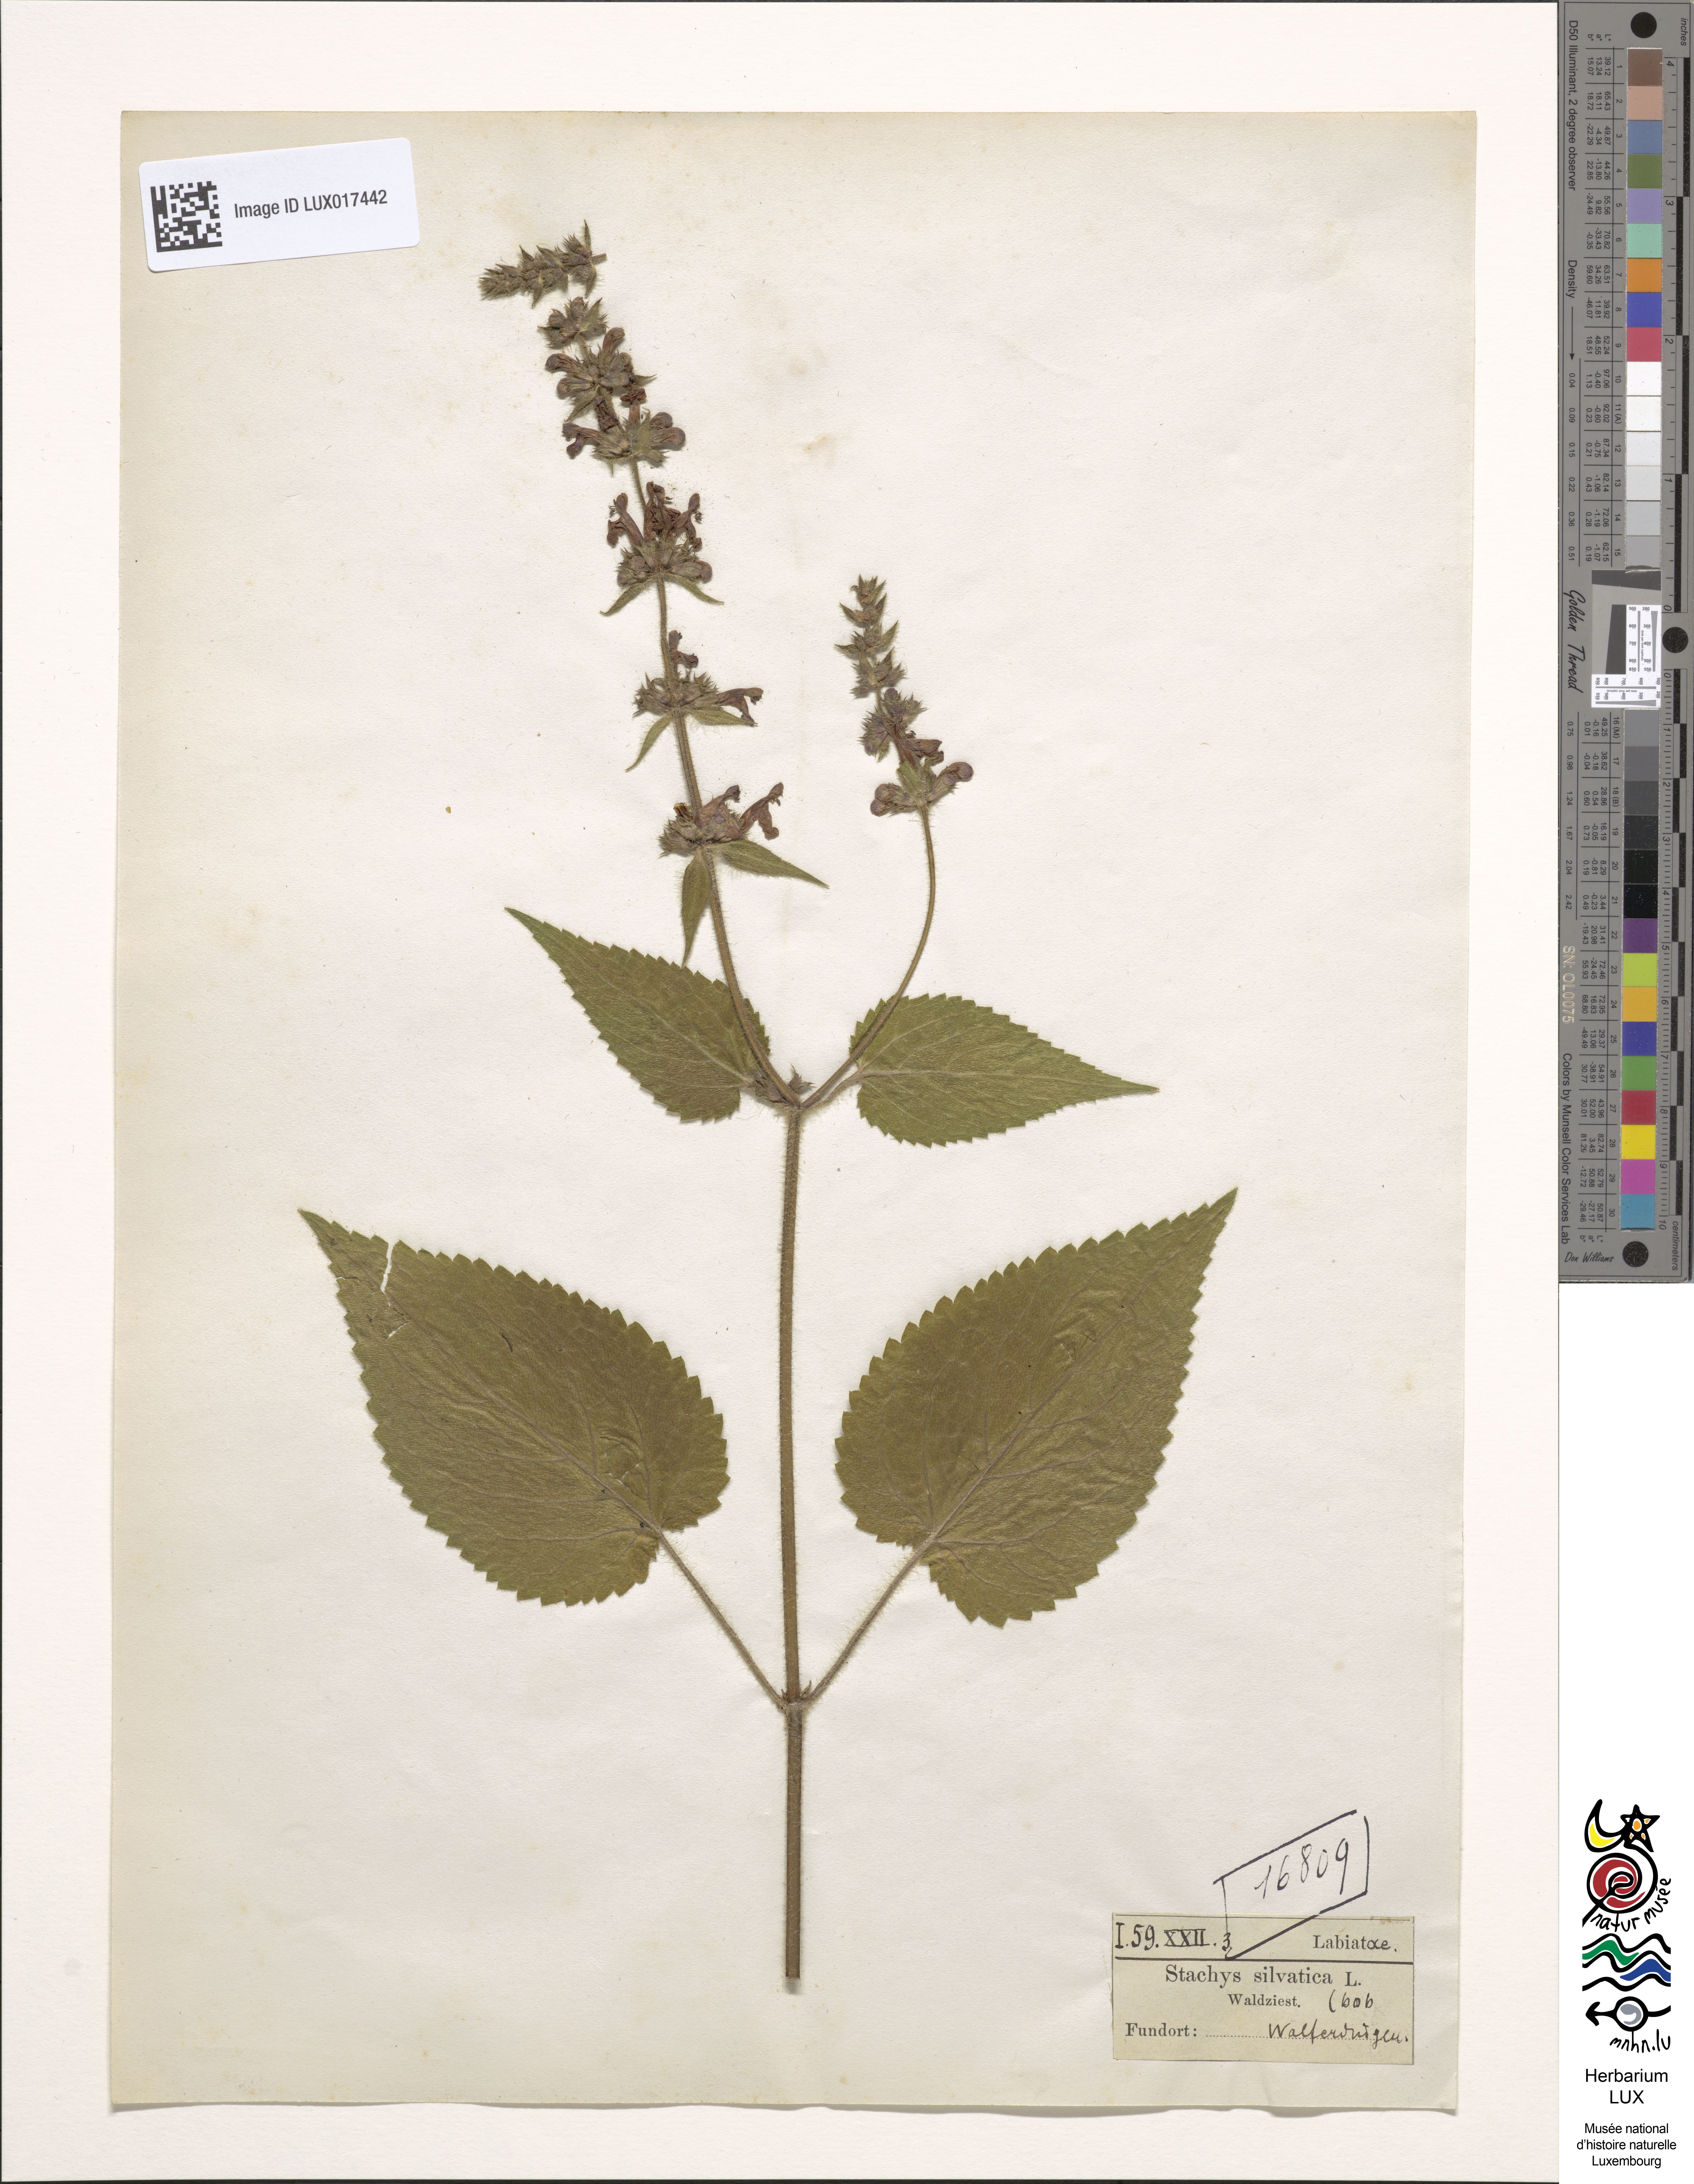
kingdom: Plantae
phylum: Tracheophyta
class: Magnoliopsida
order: Lamiales
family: Lamiaceae
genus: Stachys
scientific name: Stachys sylvatica
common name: Hedge woundwort
